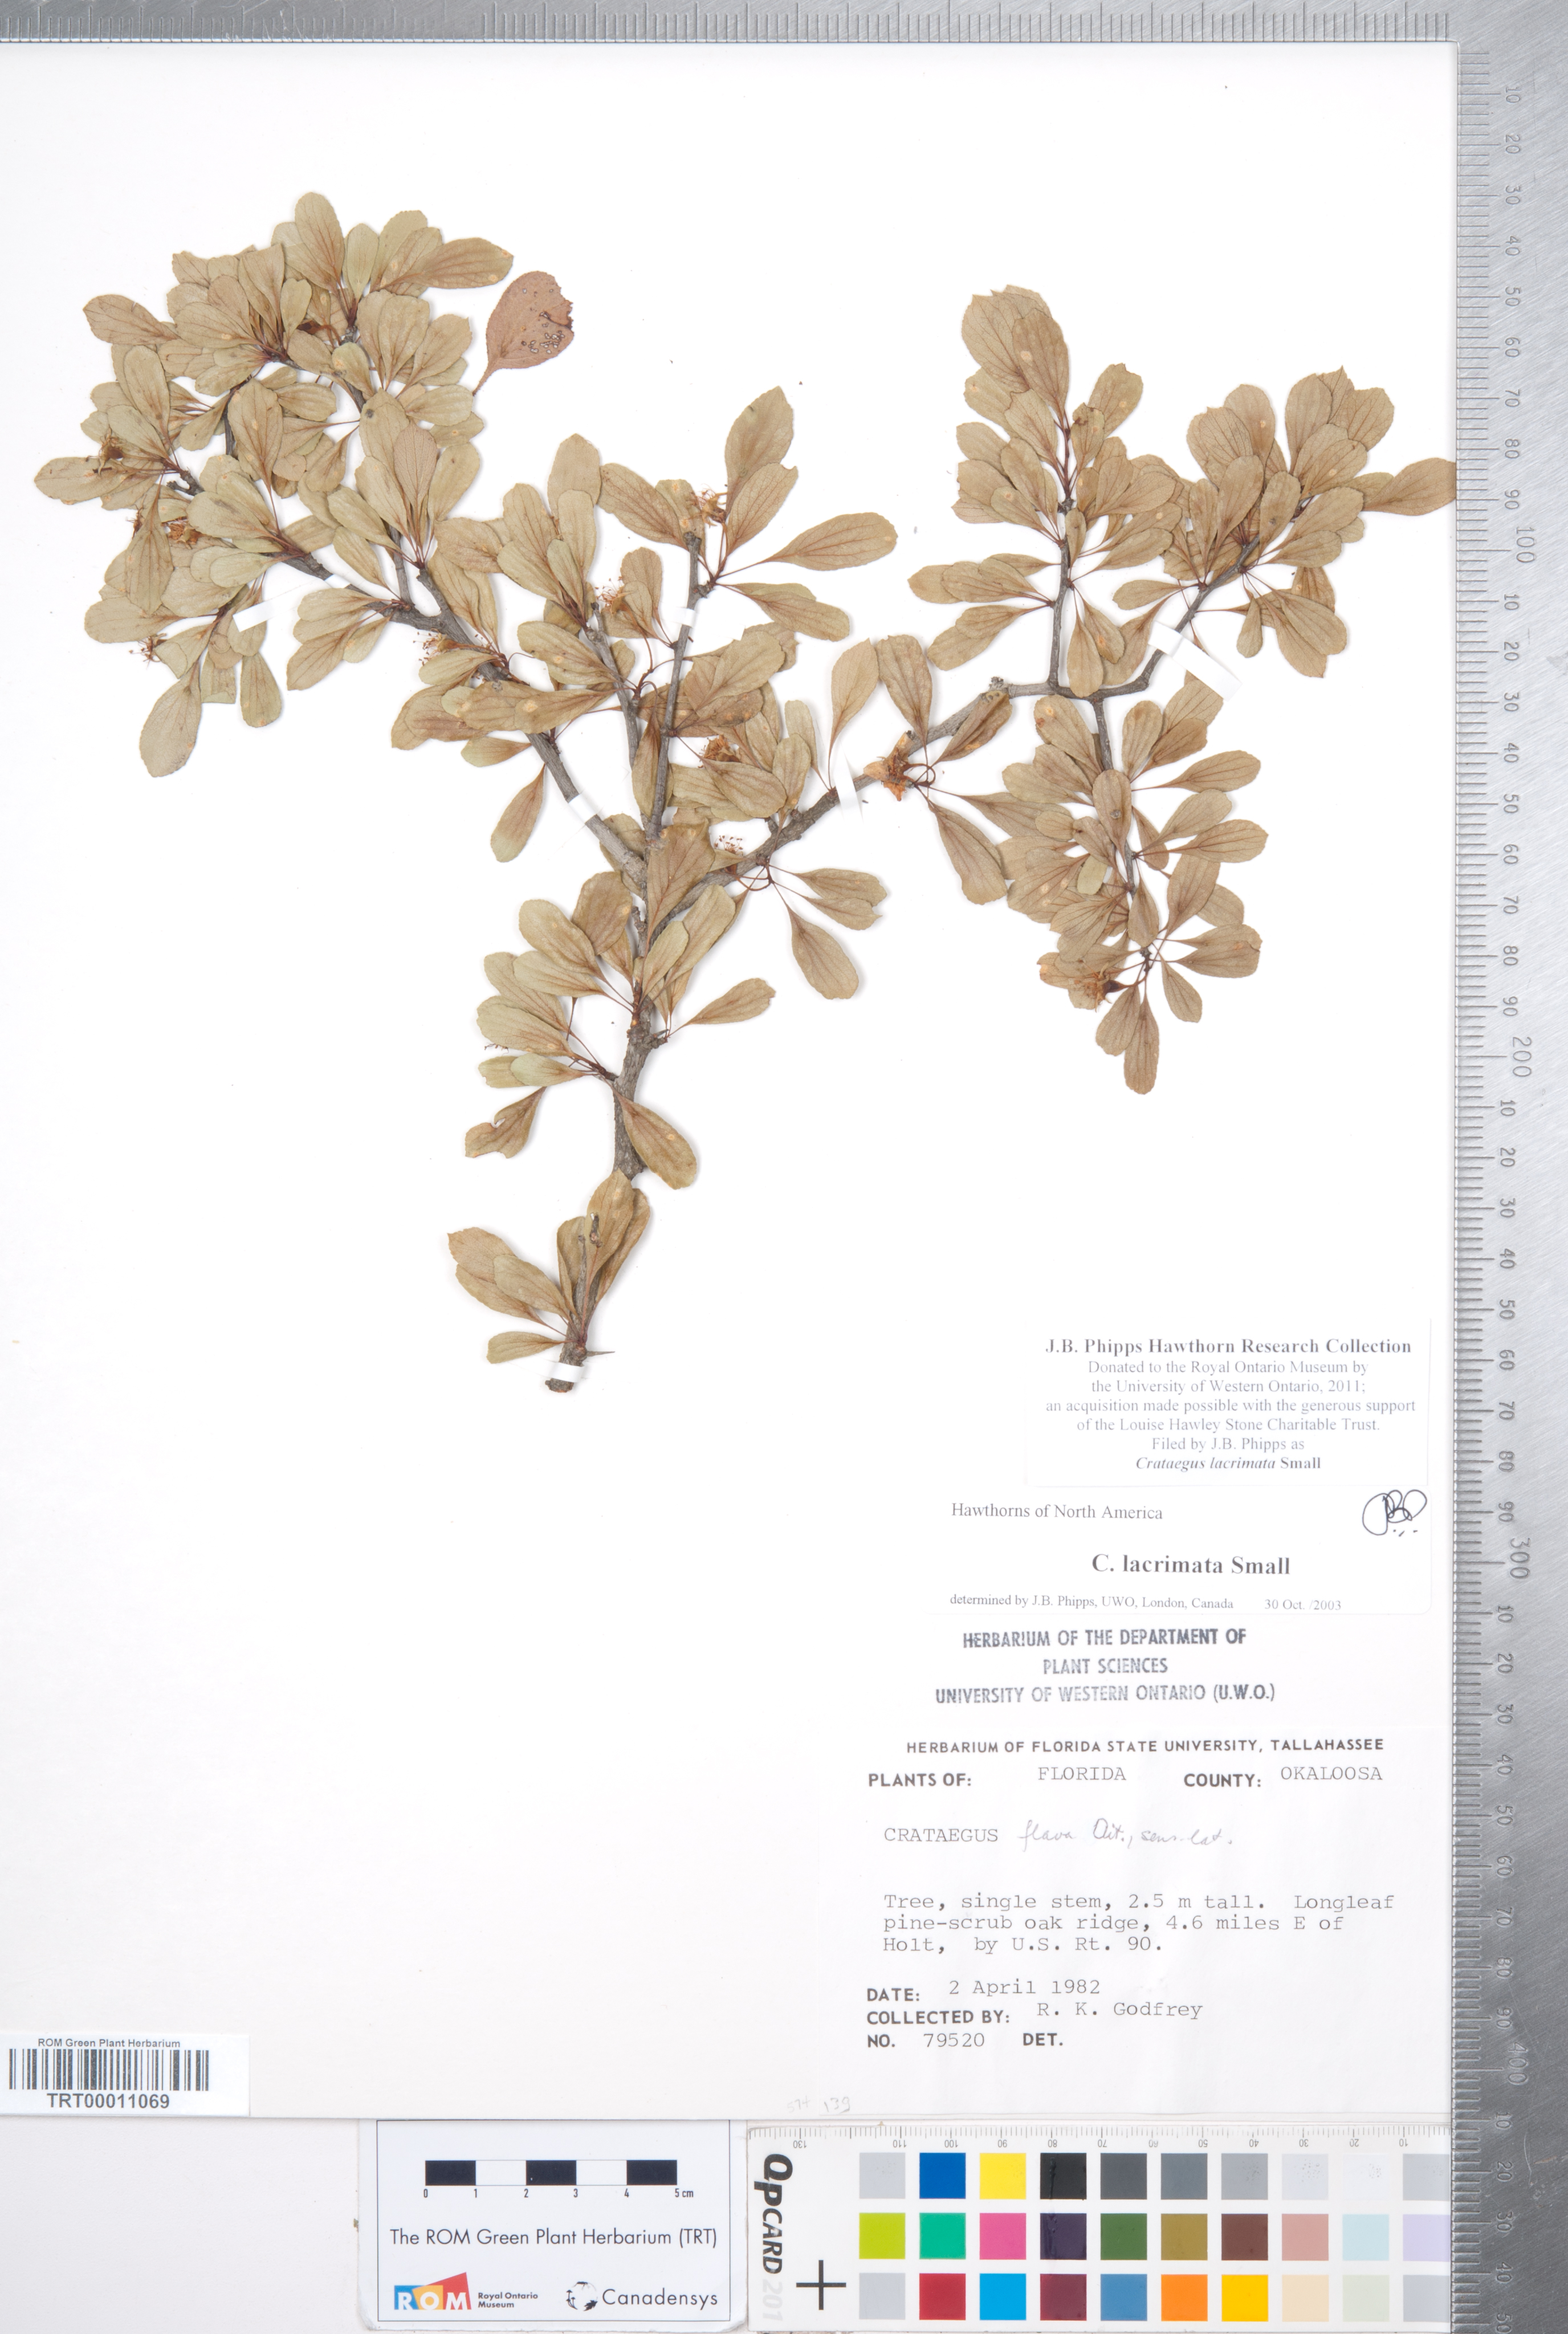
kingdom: Plantae
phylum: Tracheophyta
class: Magnoliopsida
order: Rosales
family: Rosaceae
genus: Crataegus
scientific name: Crataegus lacrimata
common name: Weeping hawthorn
